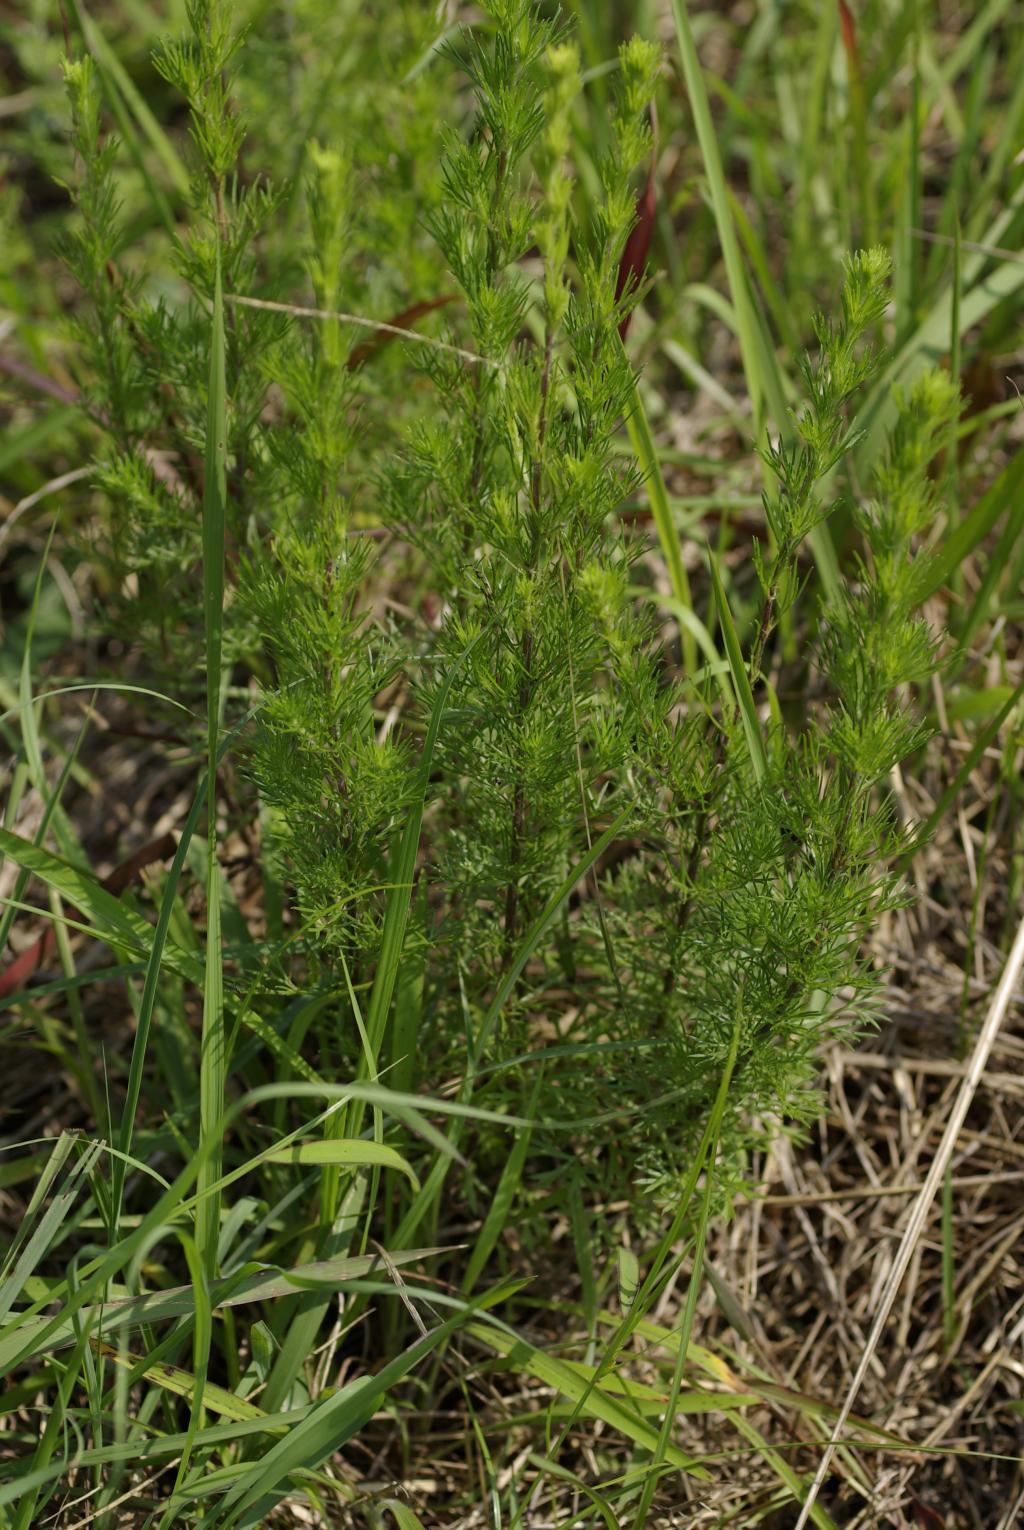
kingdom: Plantae
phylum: Tracheophyta
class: Magnoliopsida
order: Asterales
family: Asteraceae
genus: Artemisia
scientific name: Artemisia capillaris
